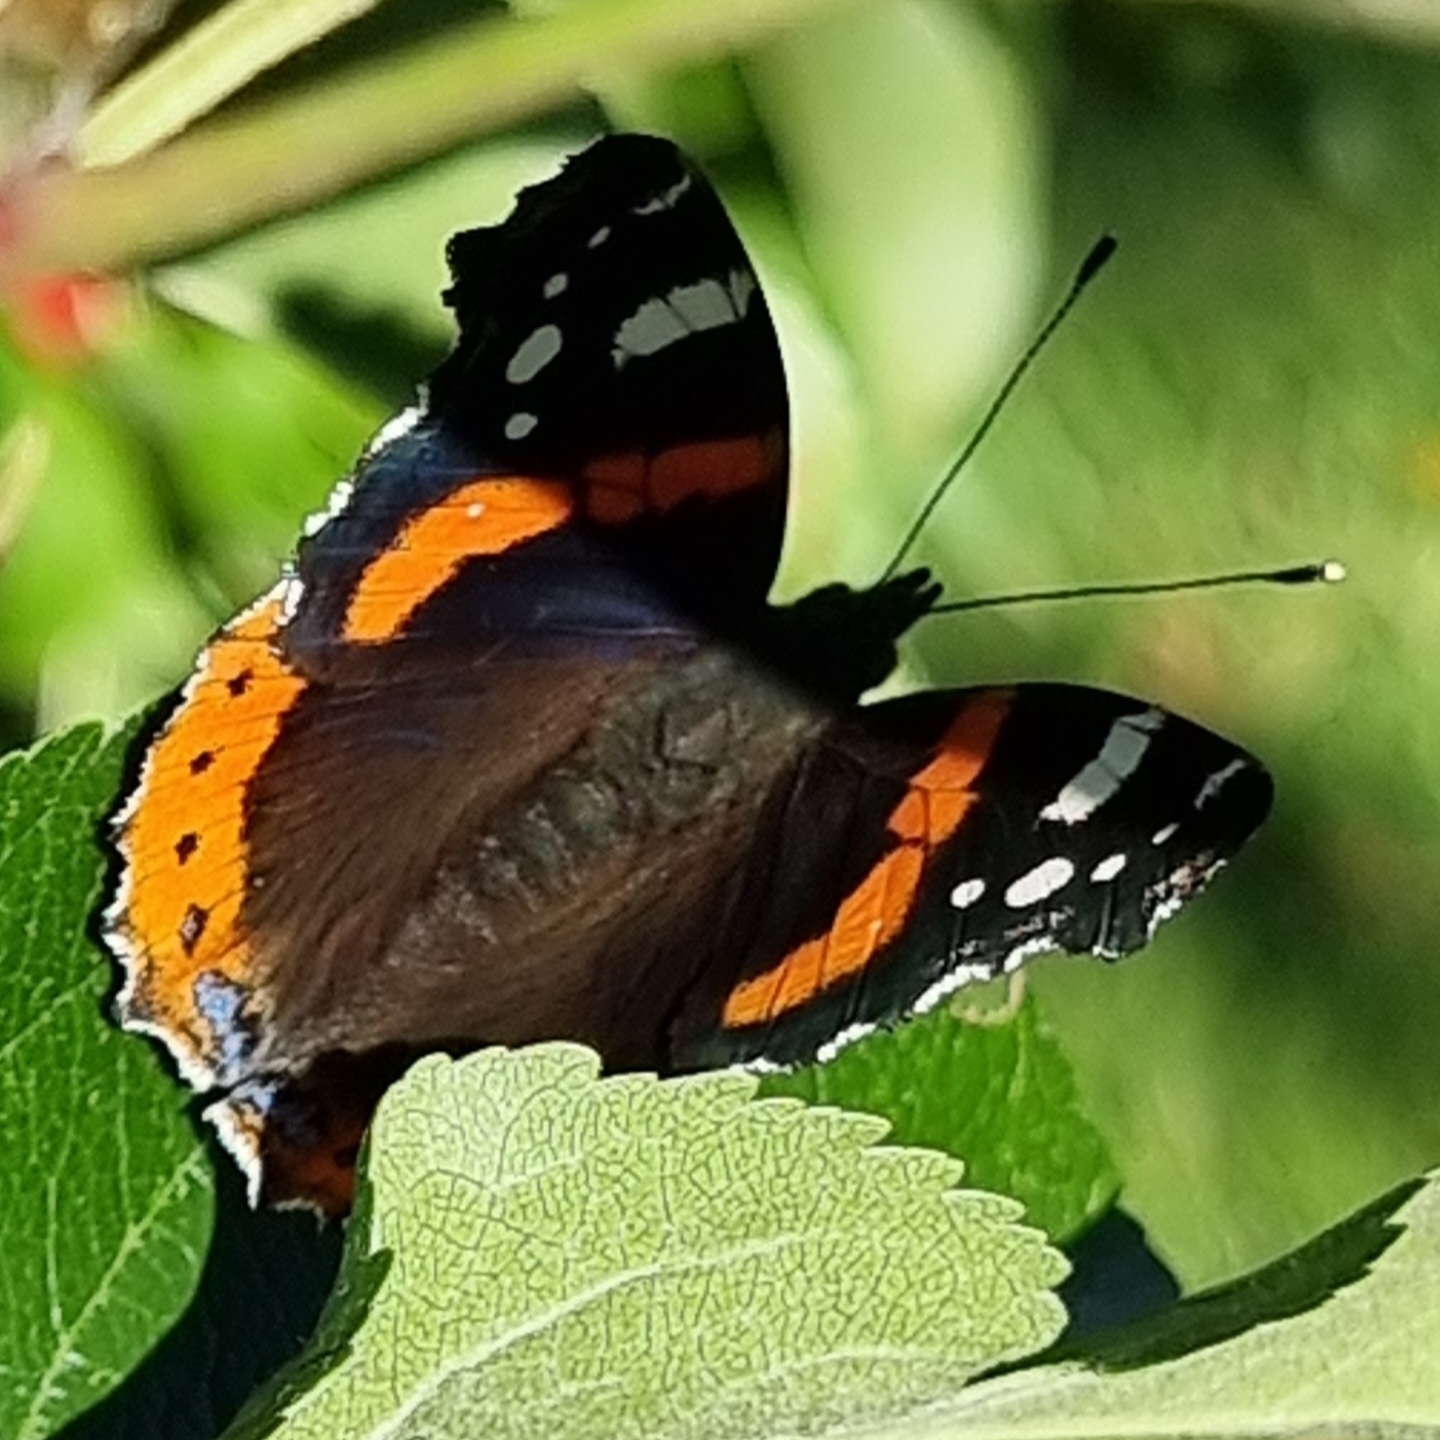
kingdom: Animalia
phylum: Arthropoda
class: Insecta
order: Lepidoptera
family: Nymphalidae
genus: Vanessa
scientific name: Vanessa atalanta
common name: Admiral
